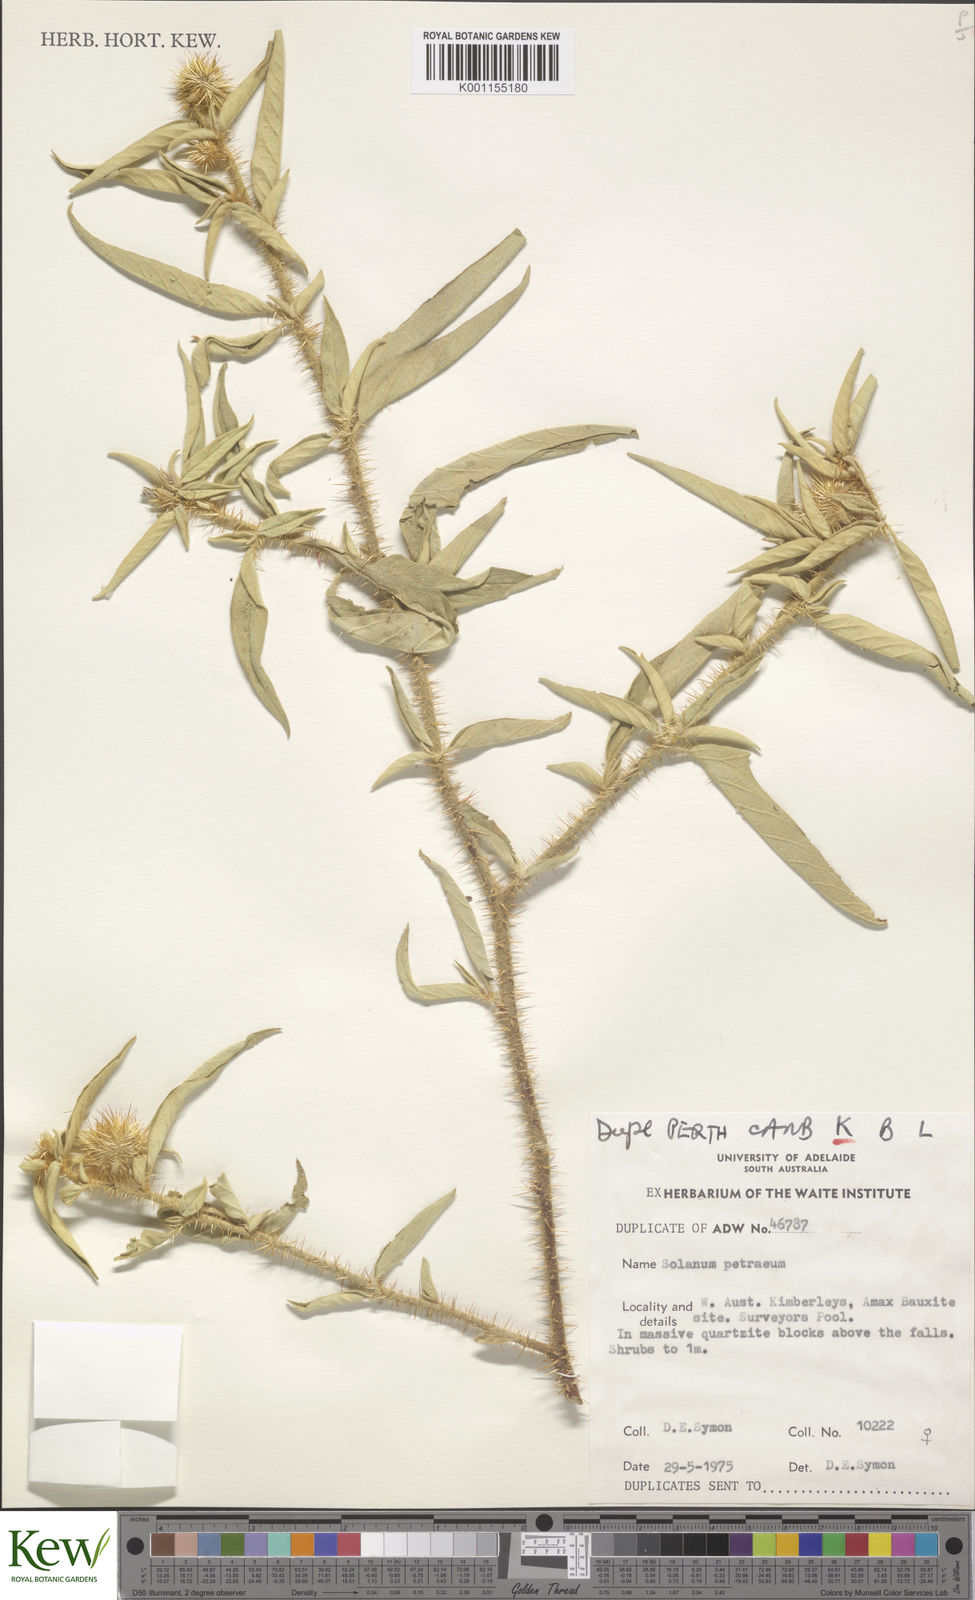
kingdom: Plantae
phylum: Tracheophyta
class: Magnoliopsida
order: Solanales
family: Solanaceae
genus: Solanum
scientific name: Solanum petraeum
